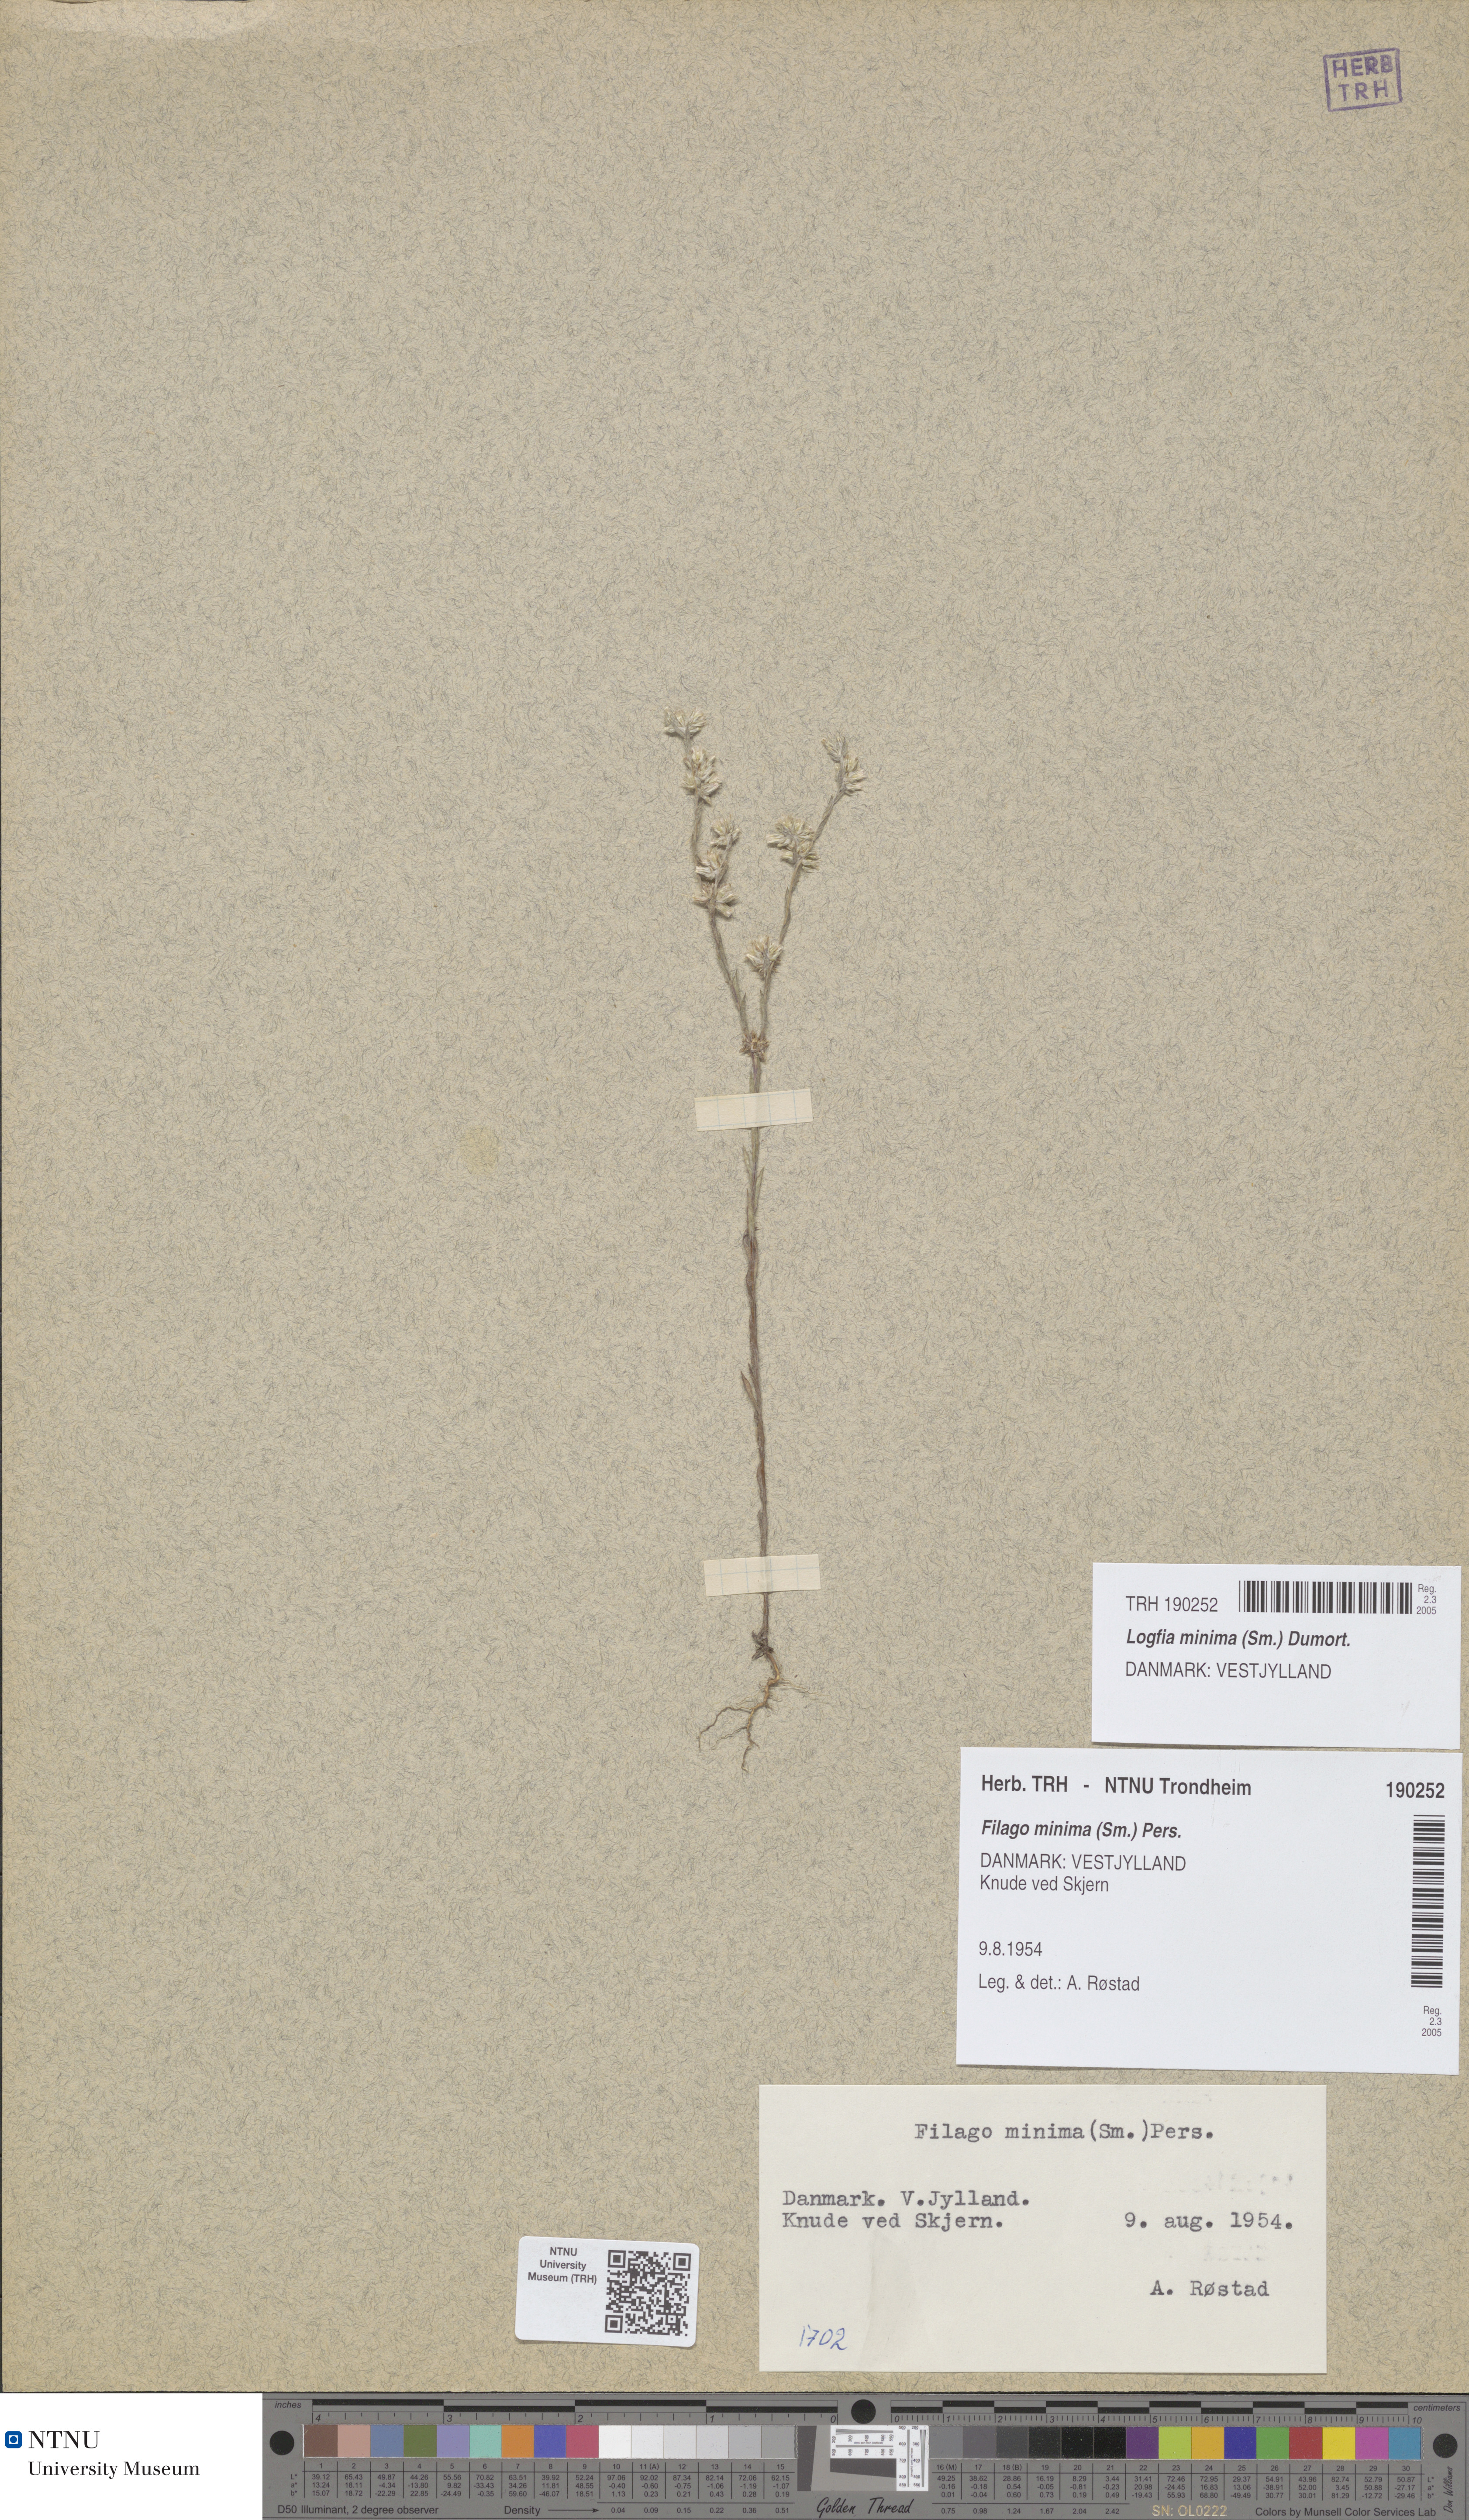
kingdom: Plantae
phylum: Tracheophyta
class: Magnoliopsida
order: Asterales
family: Asteraceae
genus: Logfia
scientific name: Logfia minima
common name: Little cottonrose
